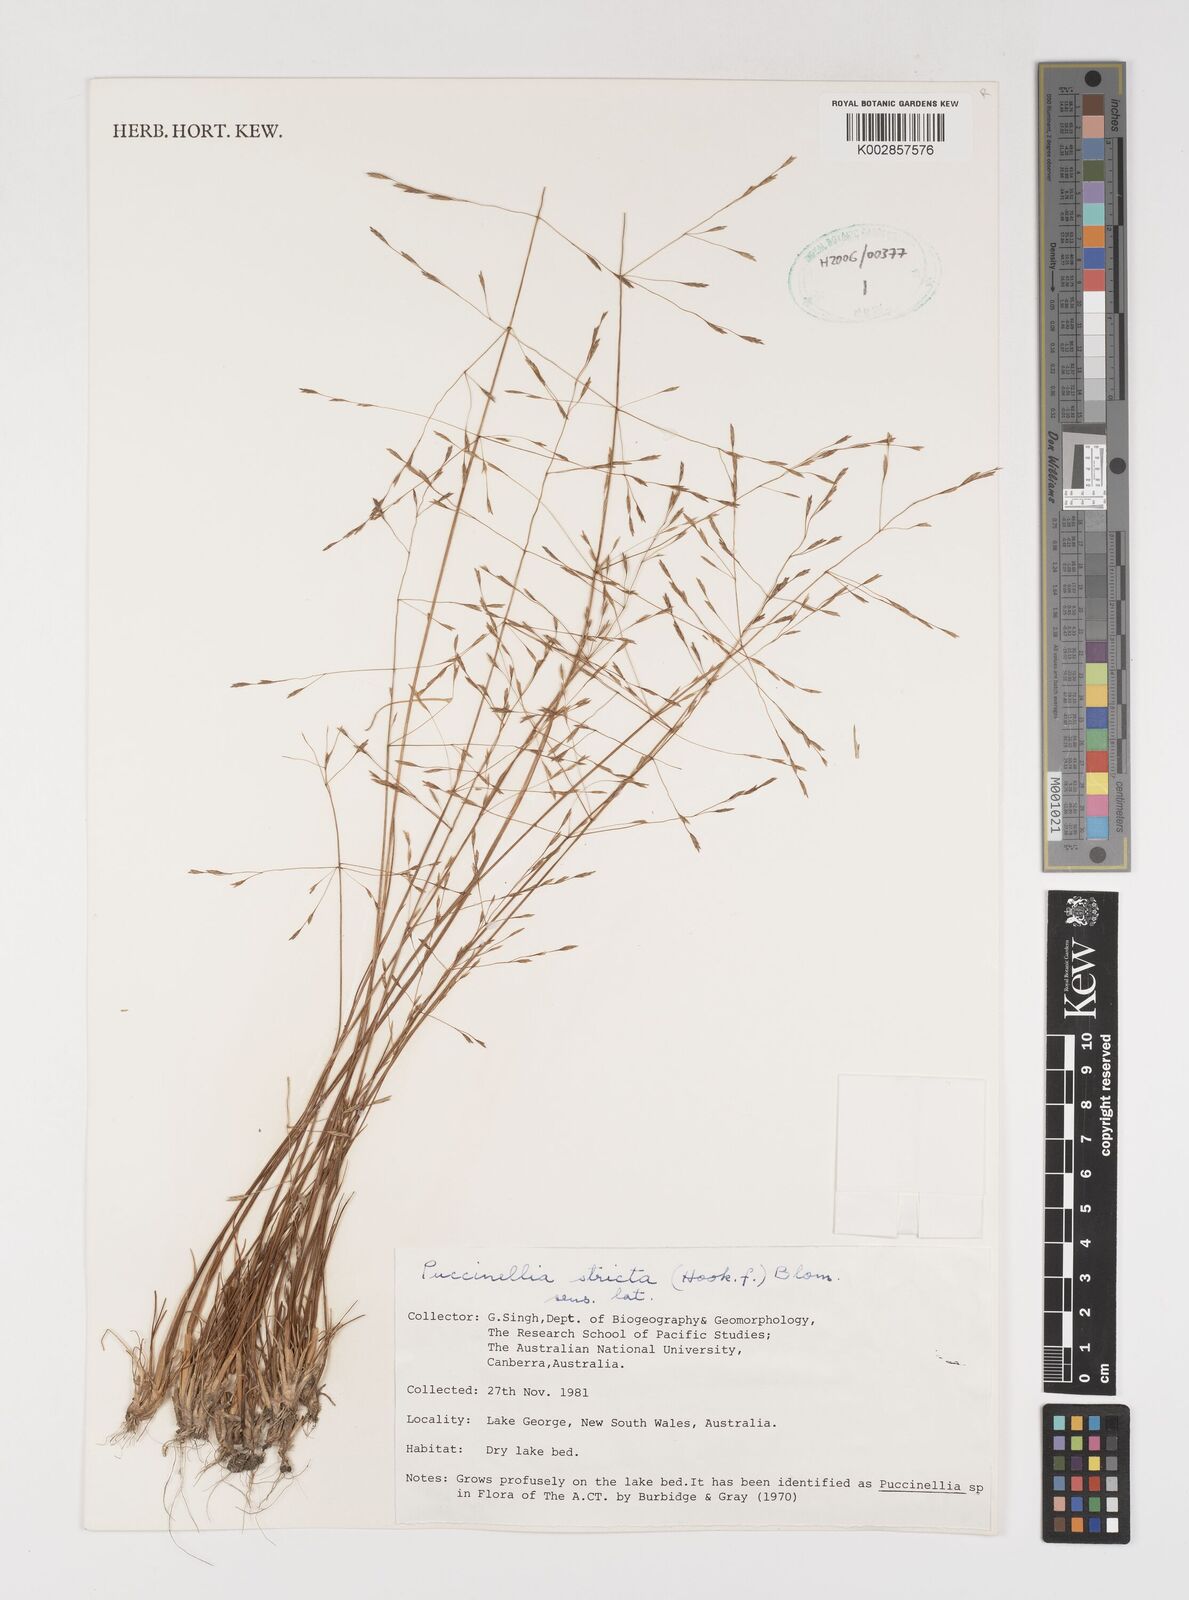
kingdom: Plantae
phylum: Tracheophyta
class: Liliopsida
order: Poales
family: Poaceae
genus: Puccinellia
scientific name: Puccinellia stricta
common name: Australian saltmarsh grass
